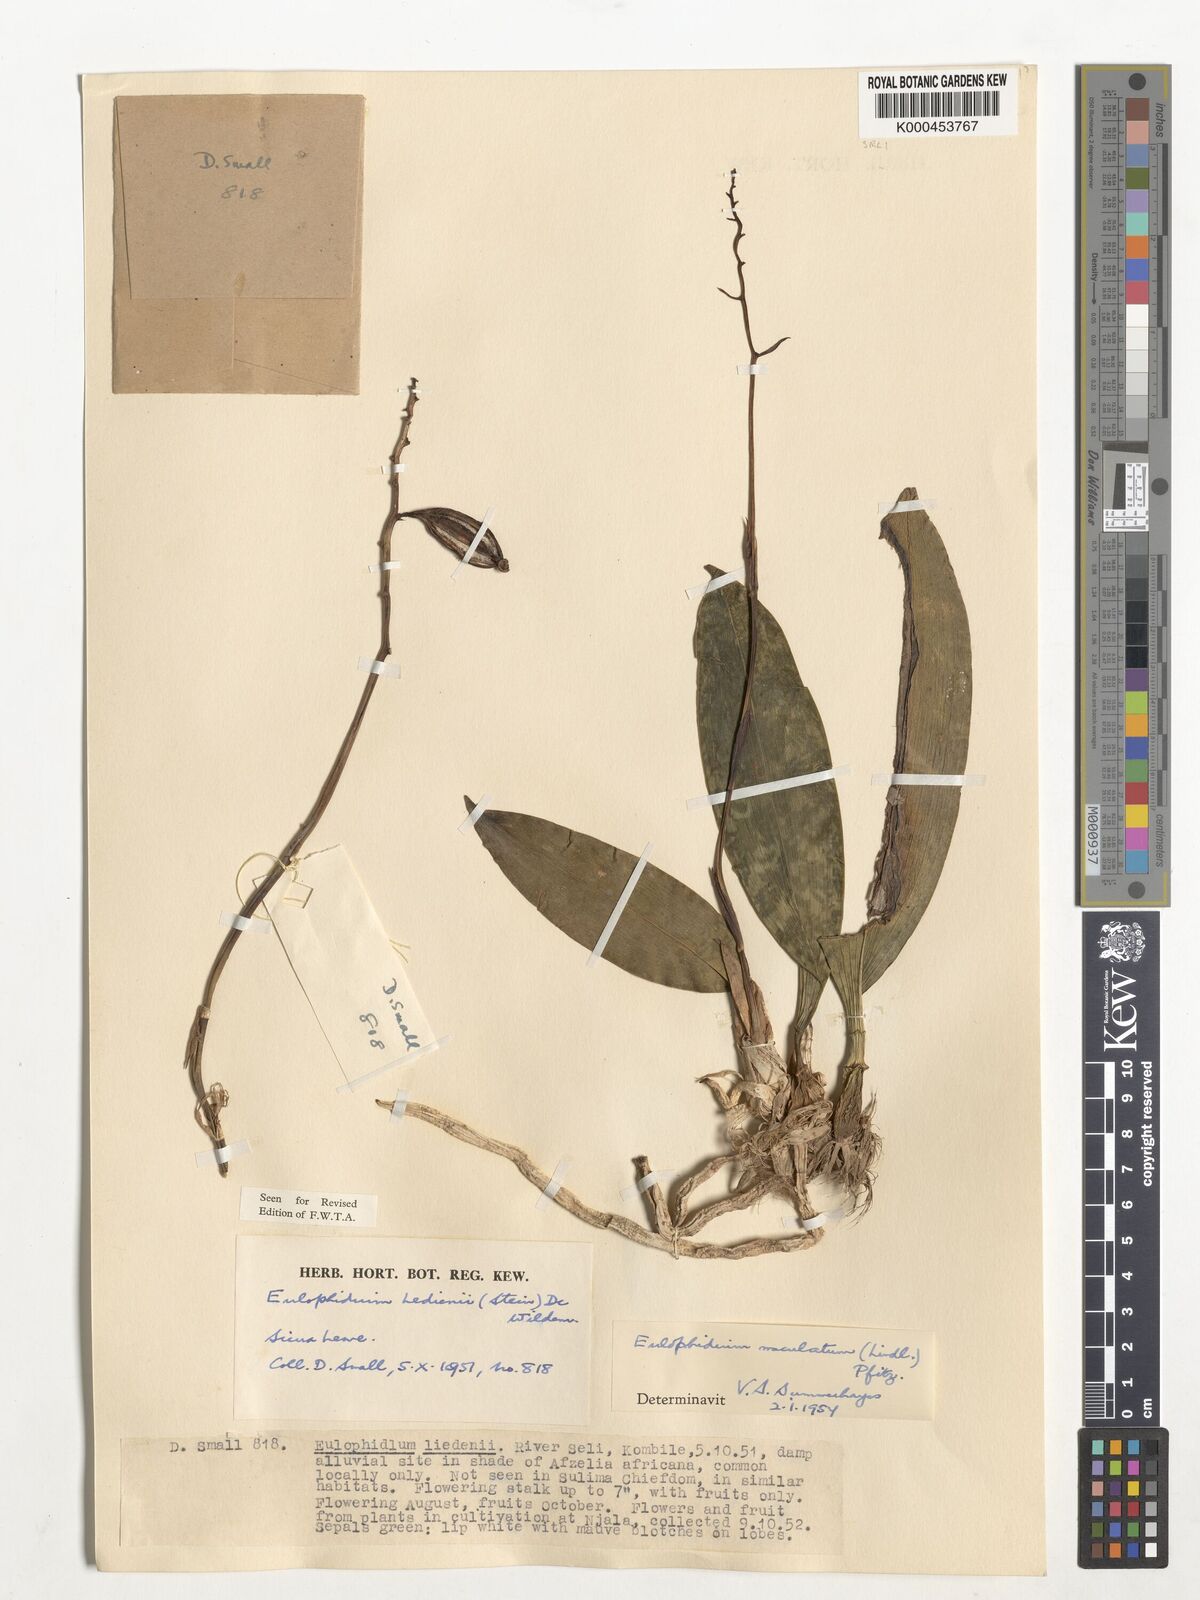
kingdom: Plantae
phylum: Tracheophyta
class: Liliopsida
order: Asparagales
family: Orchidaceae
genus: Eulophia
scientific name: Eulophia maculata
